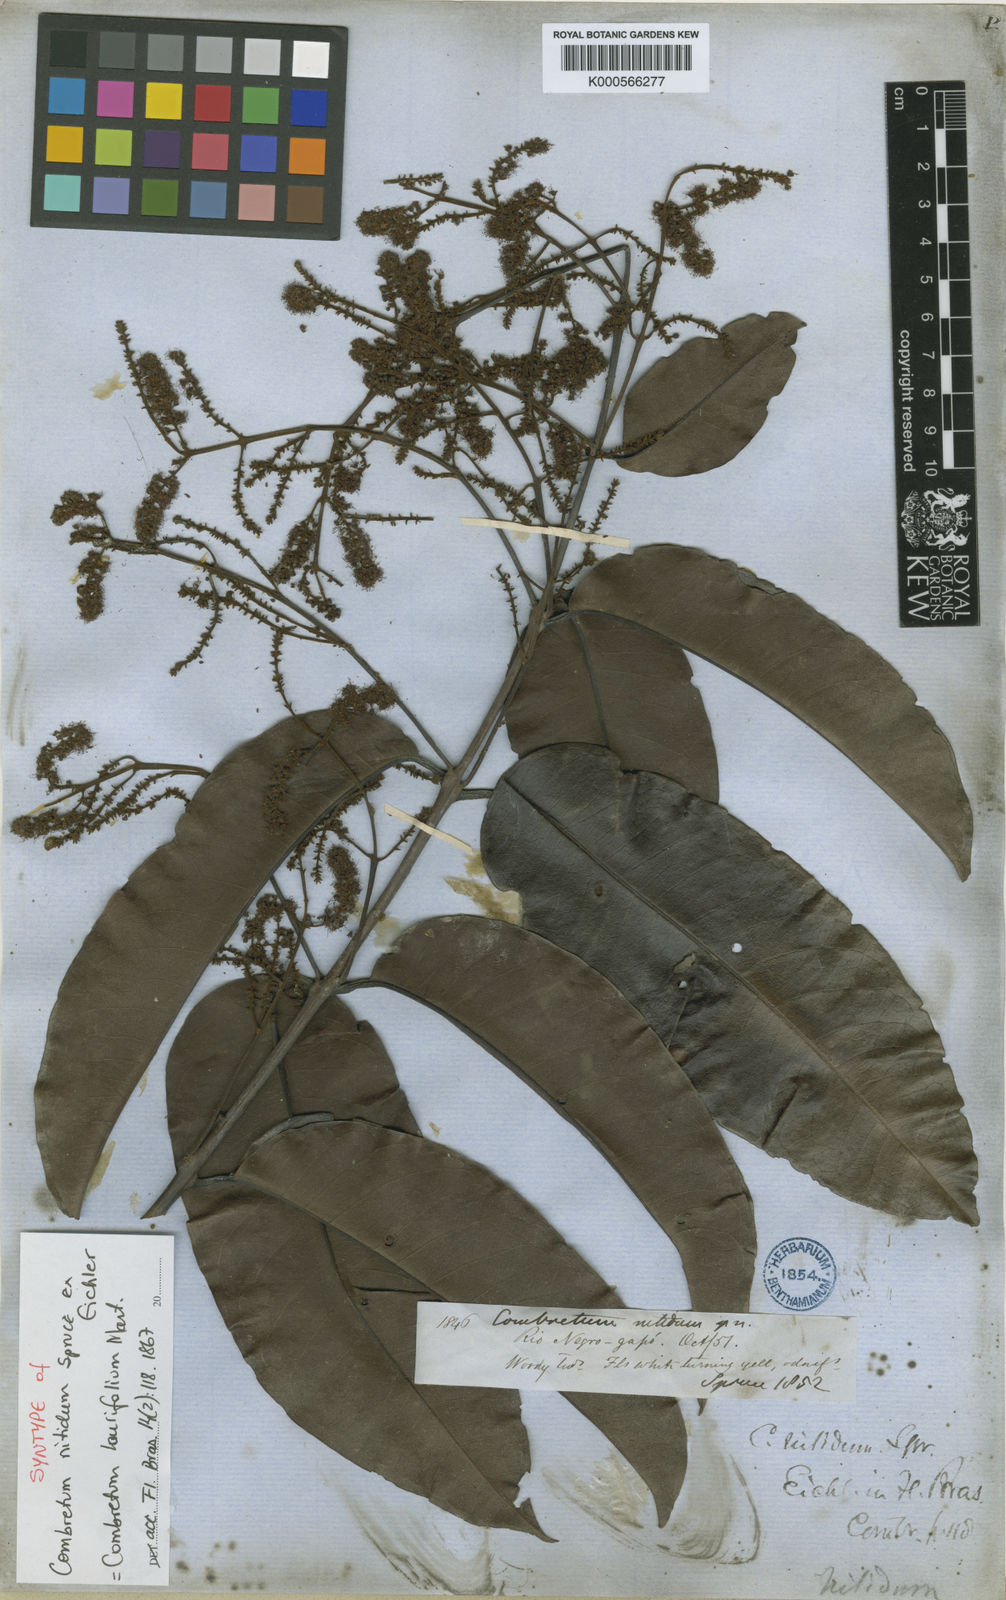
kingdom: Plantae
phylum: Tracheophyta
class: Magnoliopsida
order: Myrtales
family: Combretaceae
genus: Combretum
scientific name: Combretum laurifolium
